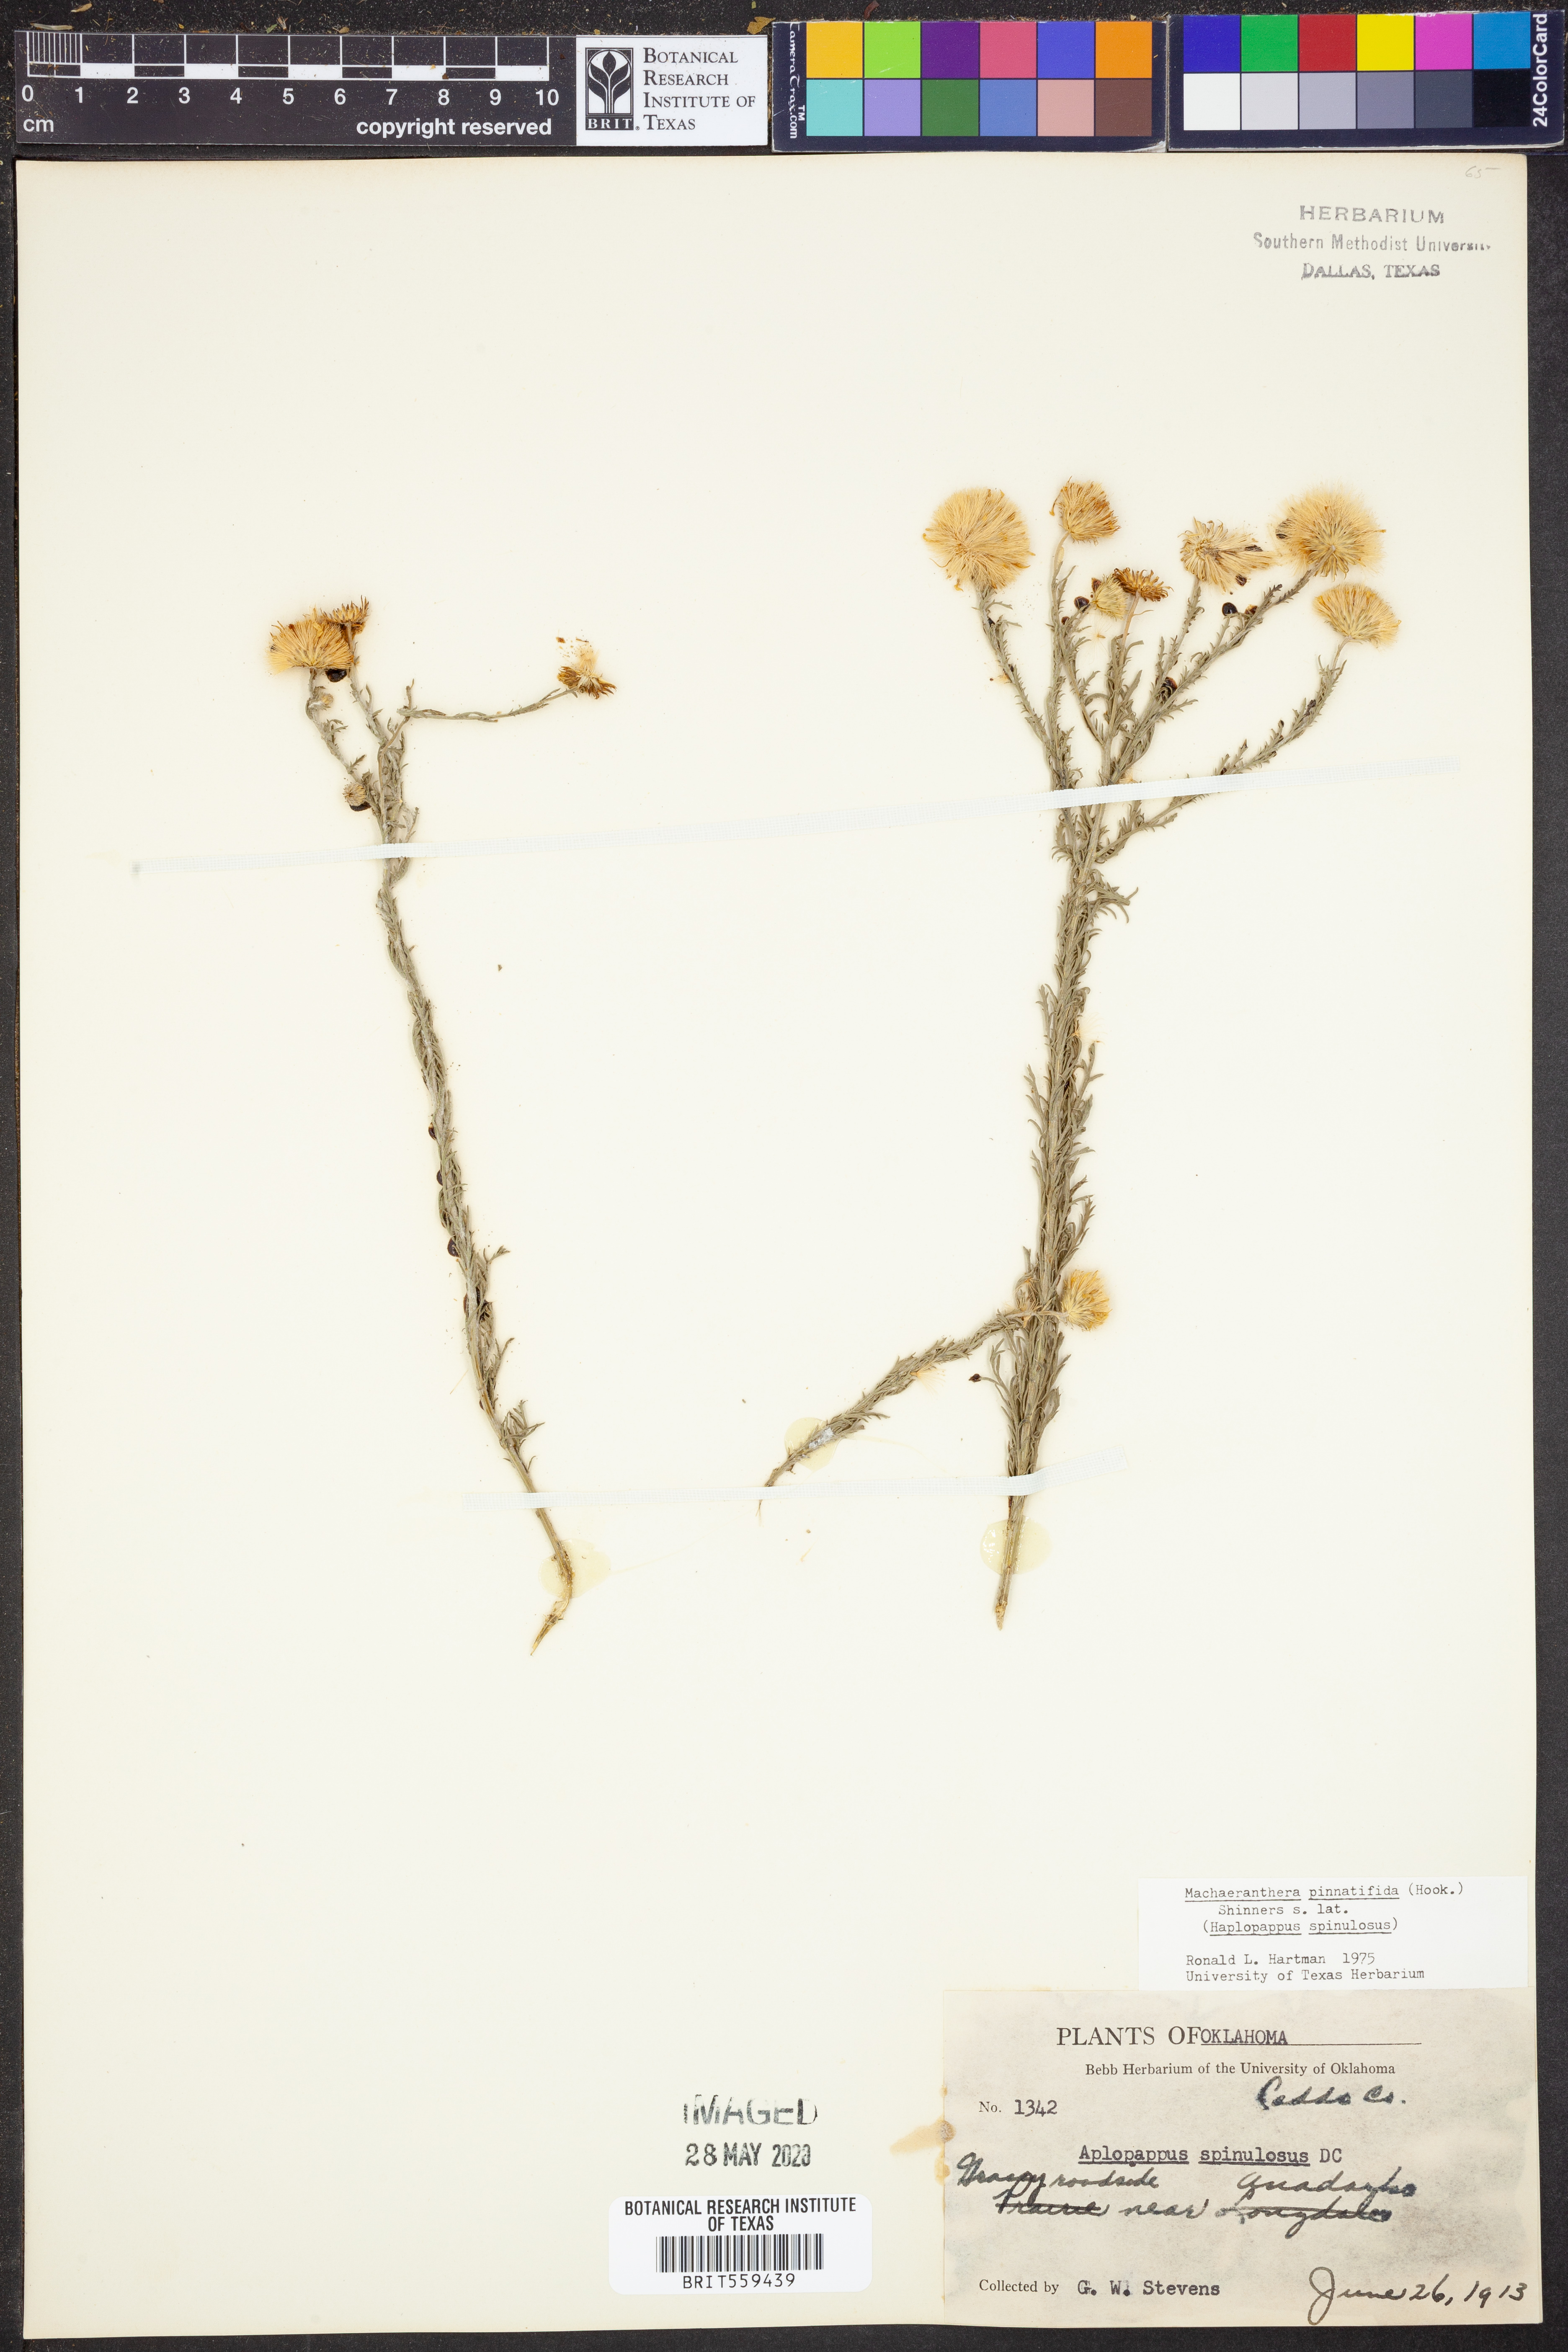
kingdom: Plantae
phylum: Tracheophyta
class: Magnoliopsida
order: Asterales
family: Asteraceae
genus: Xanthisma
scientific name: Xanthisma spinulosum
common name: Spiny goldenweed
